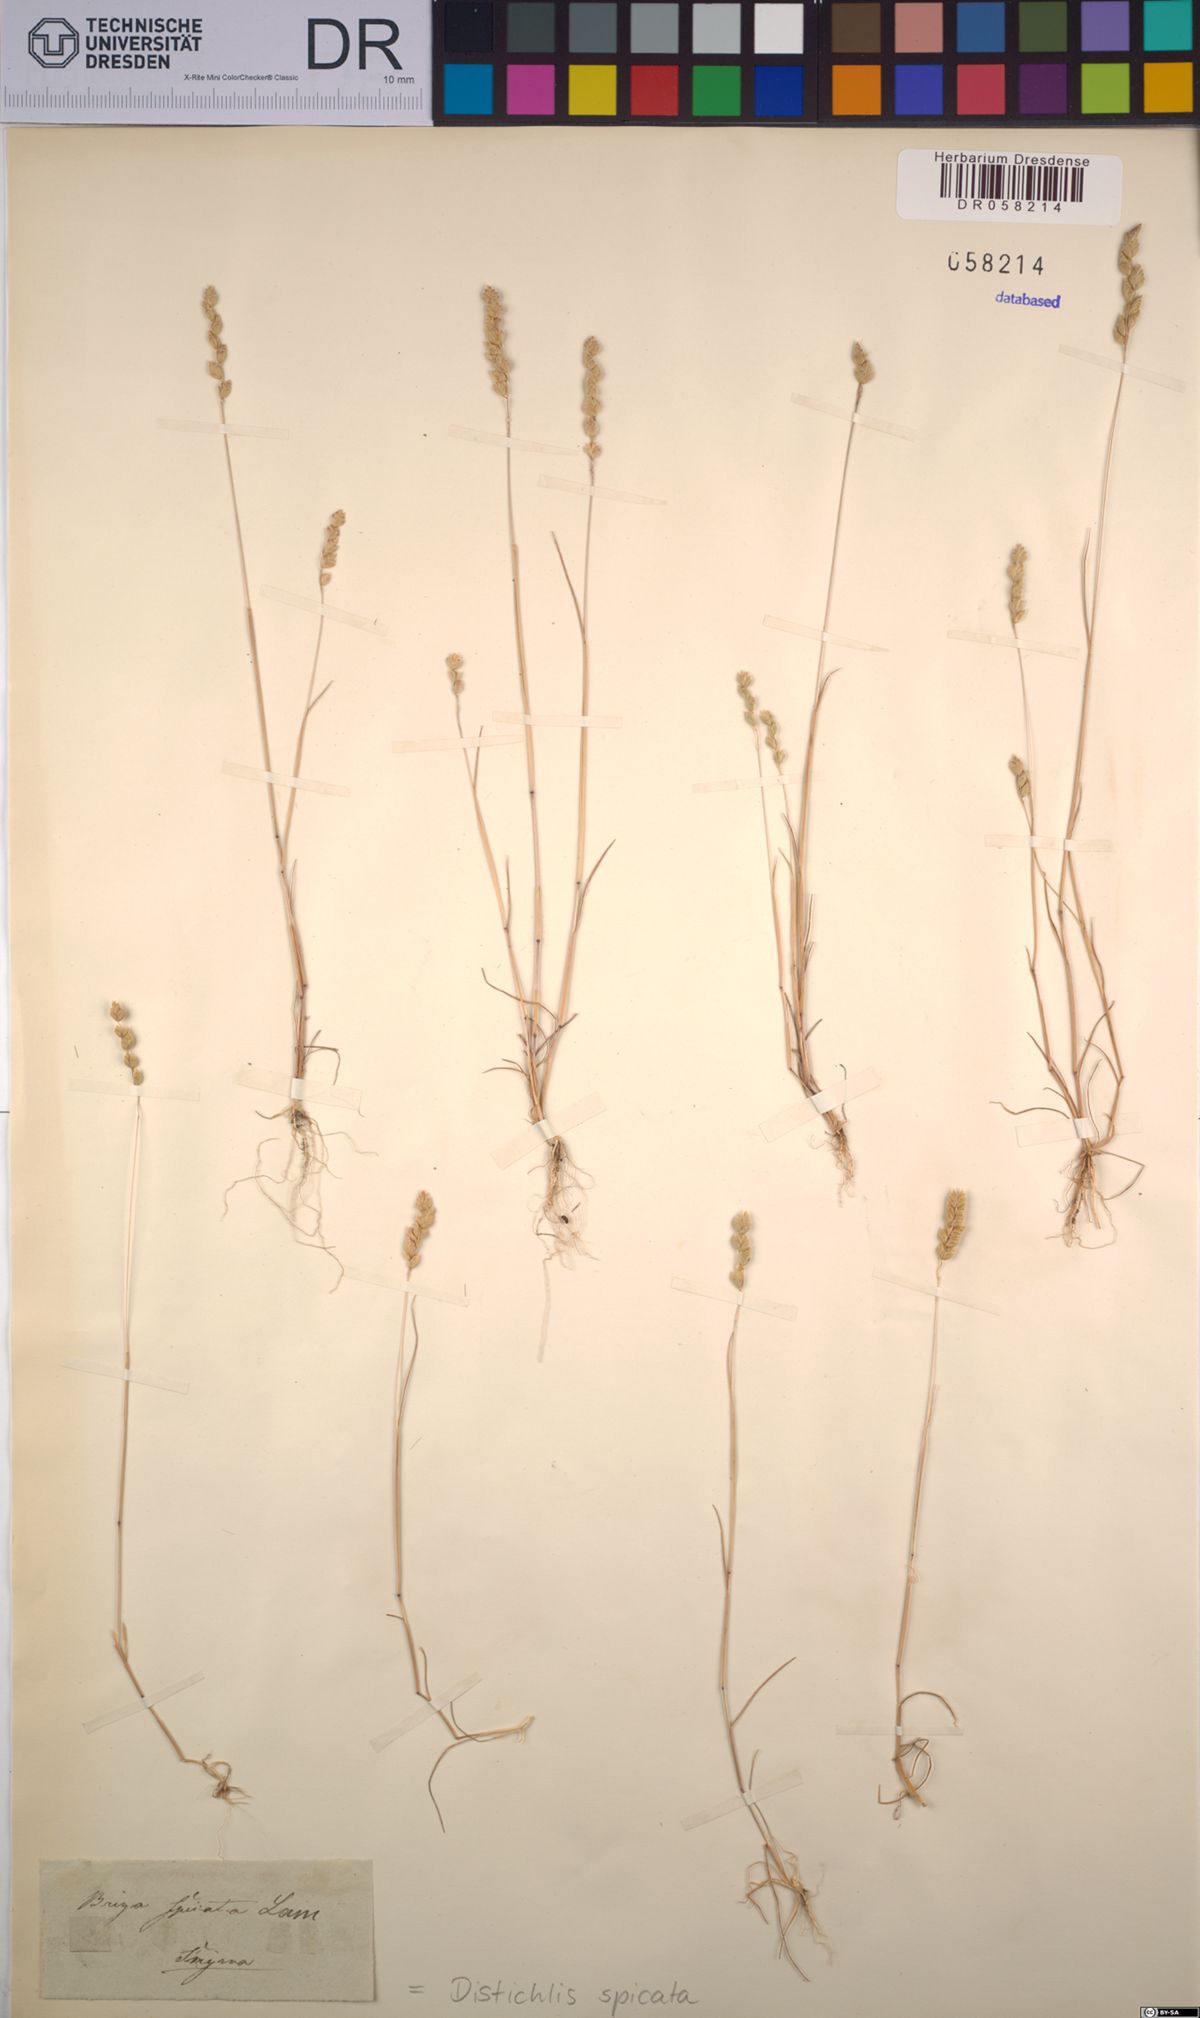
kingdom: Plantae
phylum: Tracheophyta
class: Liliopsida
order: Poales
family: Poaceae
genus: Distichlis
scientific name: Distichlis spicata
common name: Saltgrass
